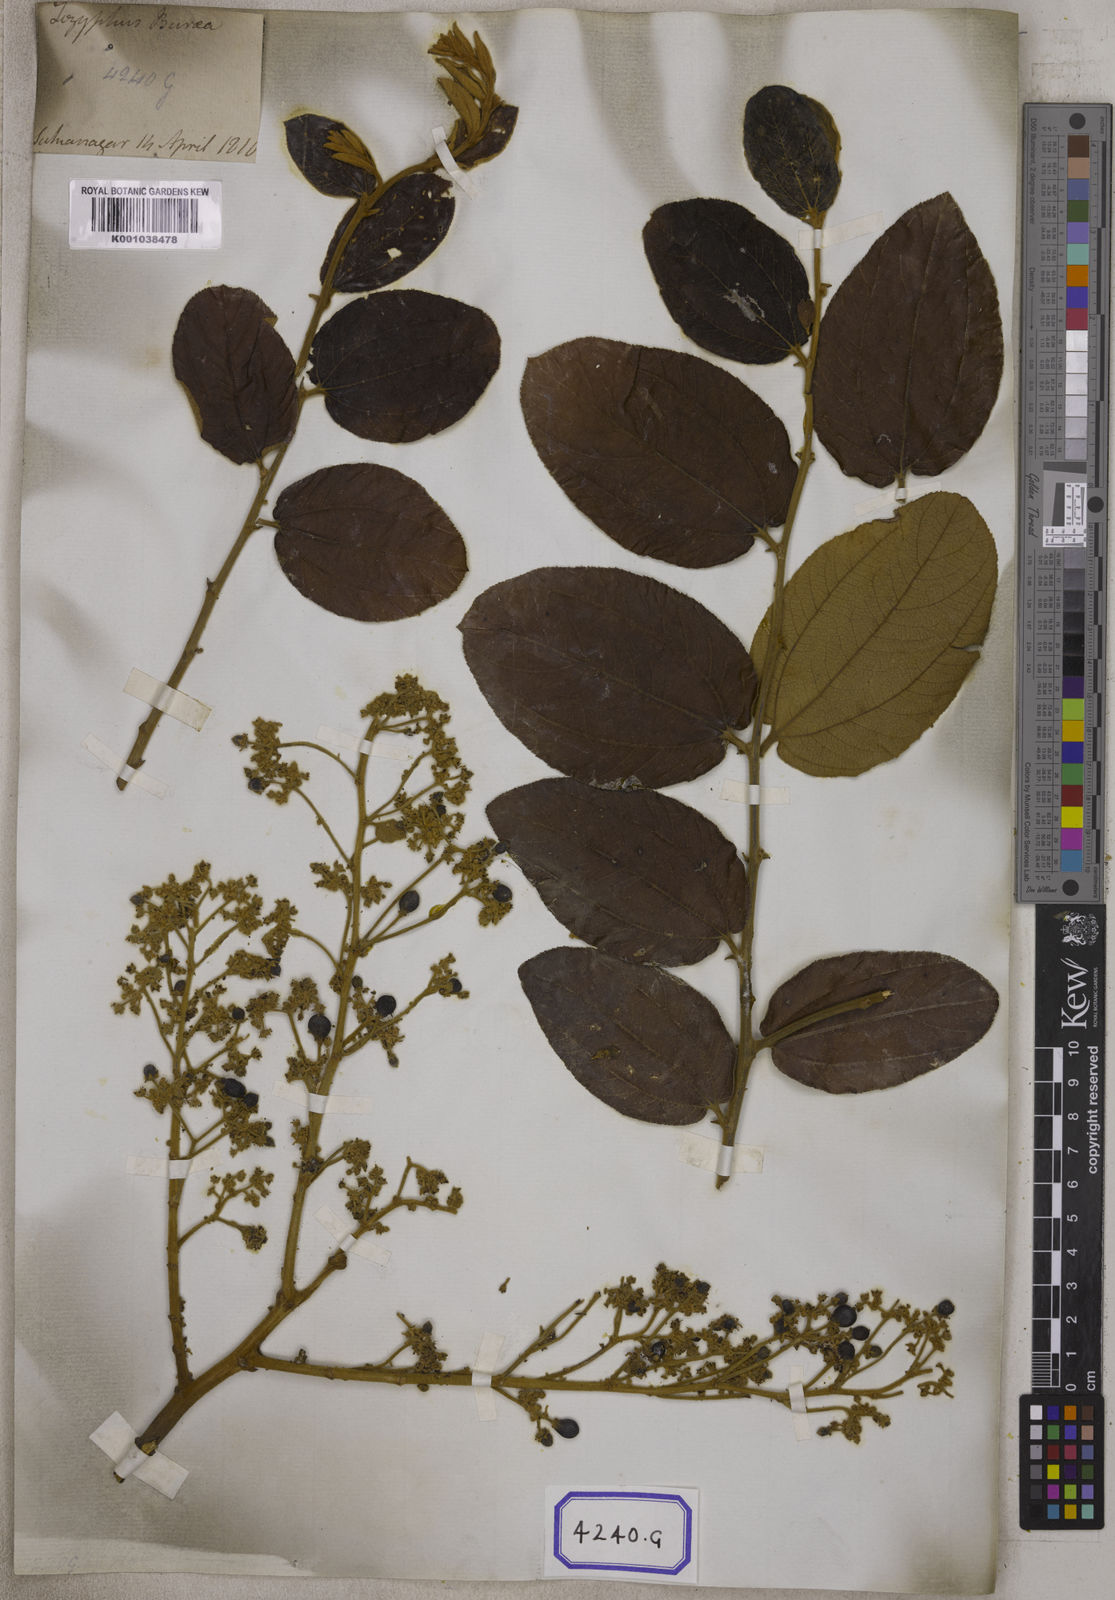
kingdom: Plantae
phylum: Tracheophyta
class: Magnoliopsida
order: Rosales
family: Rhamnaceae
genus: Ziziphus
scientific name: Ziziphus rugosa
